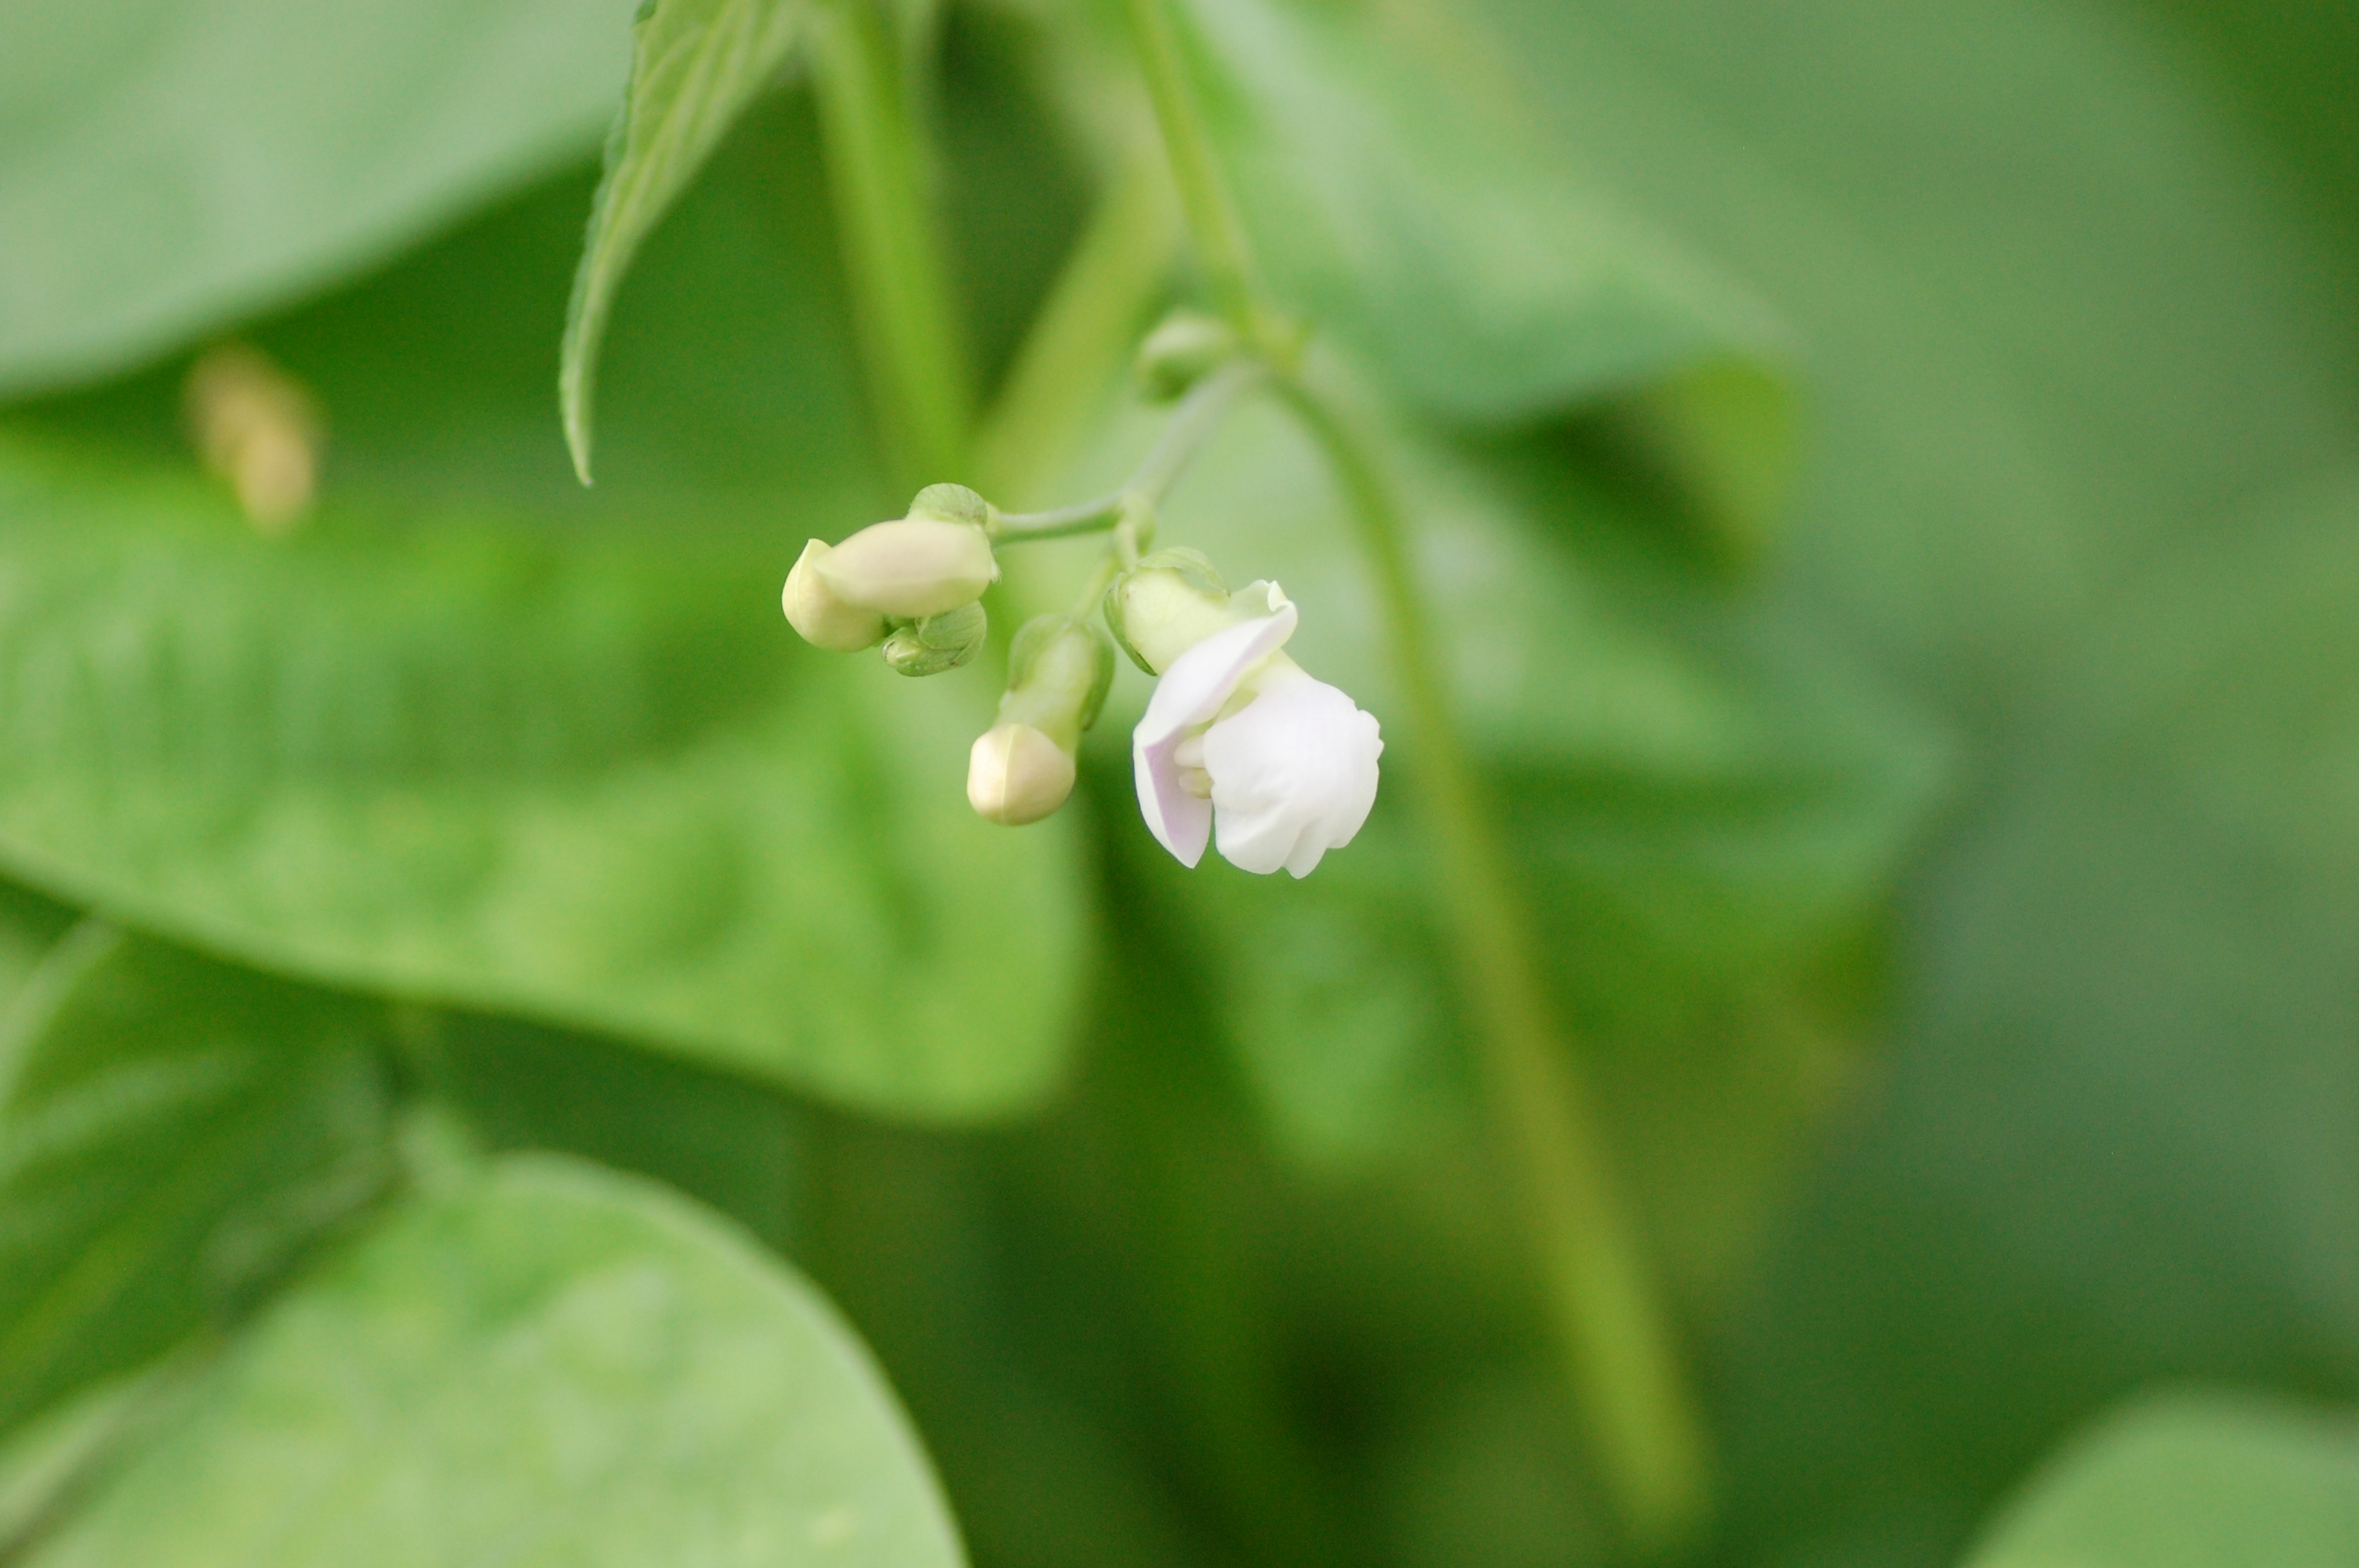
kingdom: Plantae
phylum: Tracheophyta
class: Magnoliopsida
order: Fabales
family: Fabaceae
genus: Phaseolus
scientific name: Phaseolus vulgaris
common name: Bean
